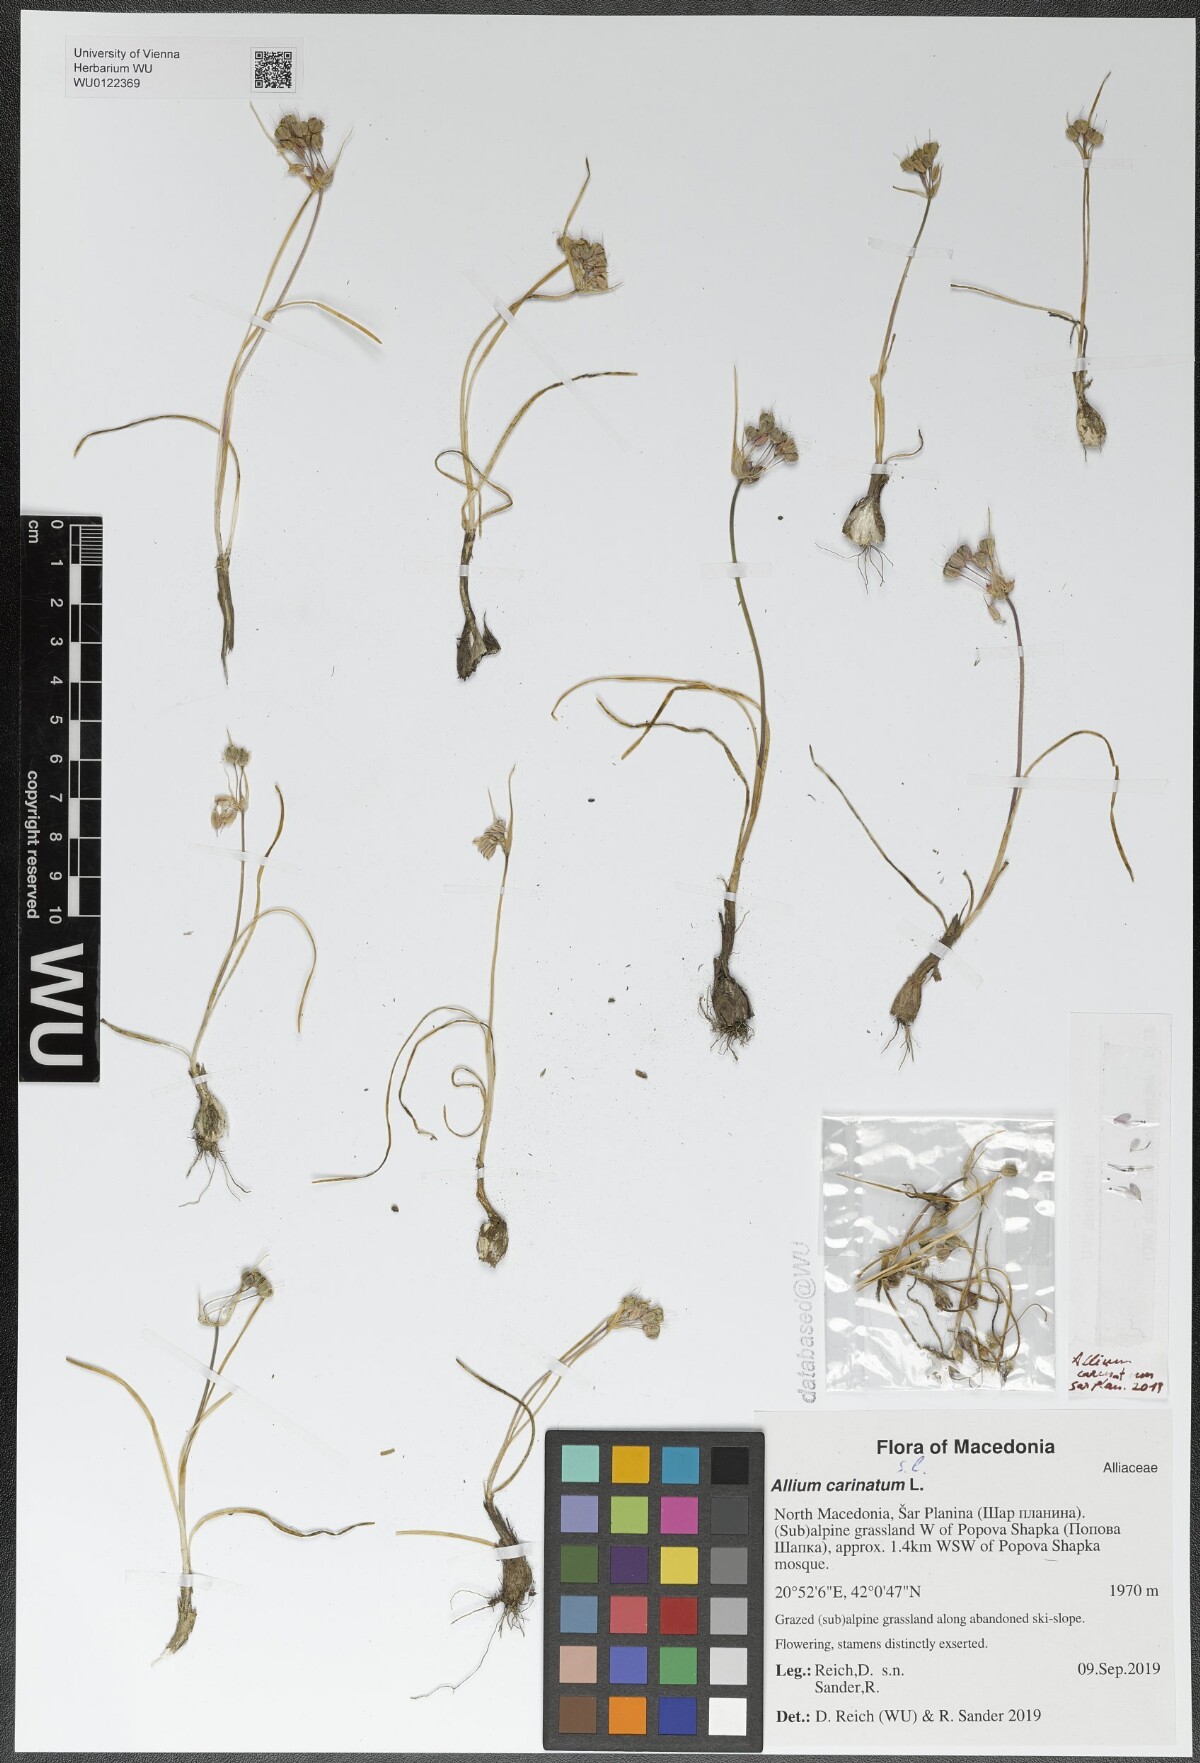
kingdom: Plantae
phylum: Tracheophyta
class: Liliopsida
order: Asparagales
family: Amaryllidaceae
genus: Allium
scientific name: Allium carinatum
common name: Keeled garlic
